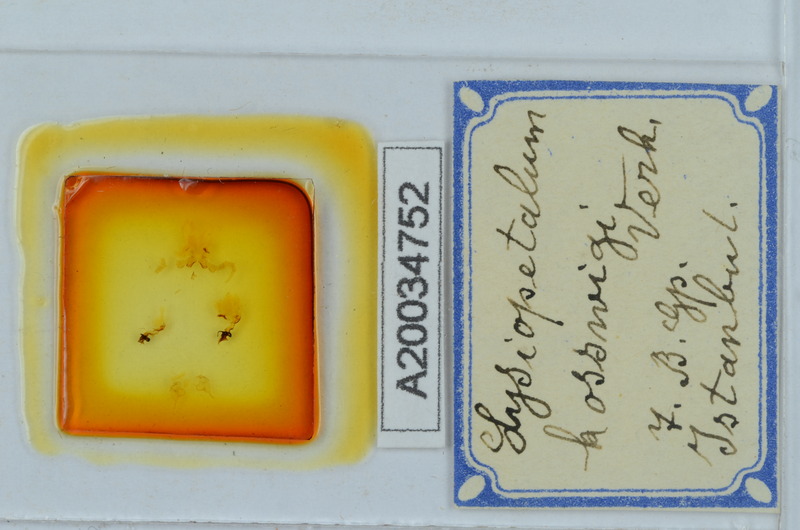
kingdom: Animalia
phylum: Arthropoda
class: Diplopoda
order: Callipodida
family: Schizopetalidae
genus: Acanthopetalum
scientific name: Acanthopetalum furculigerum
